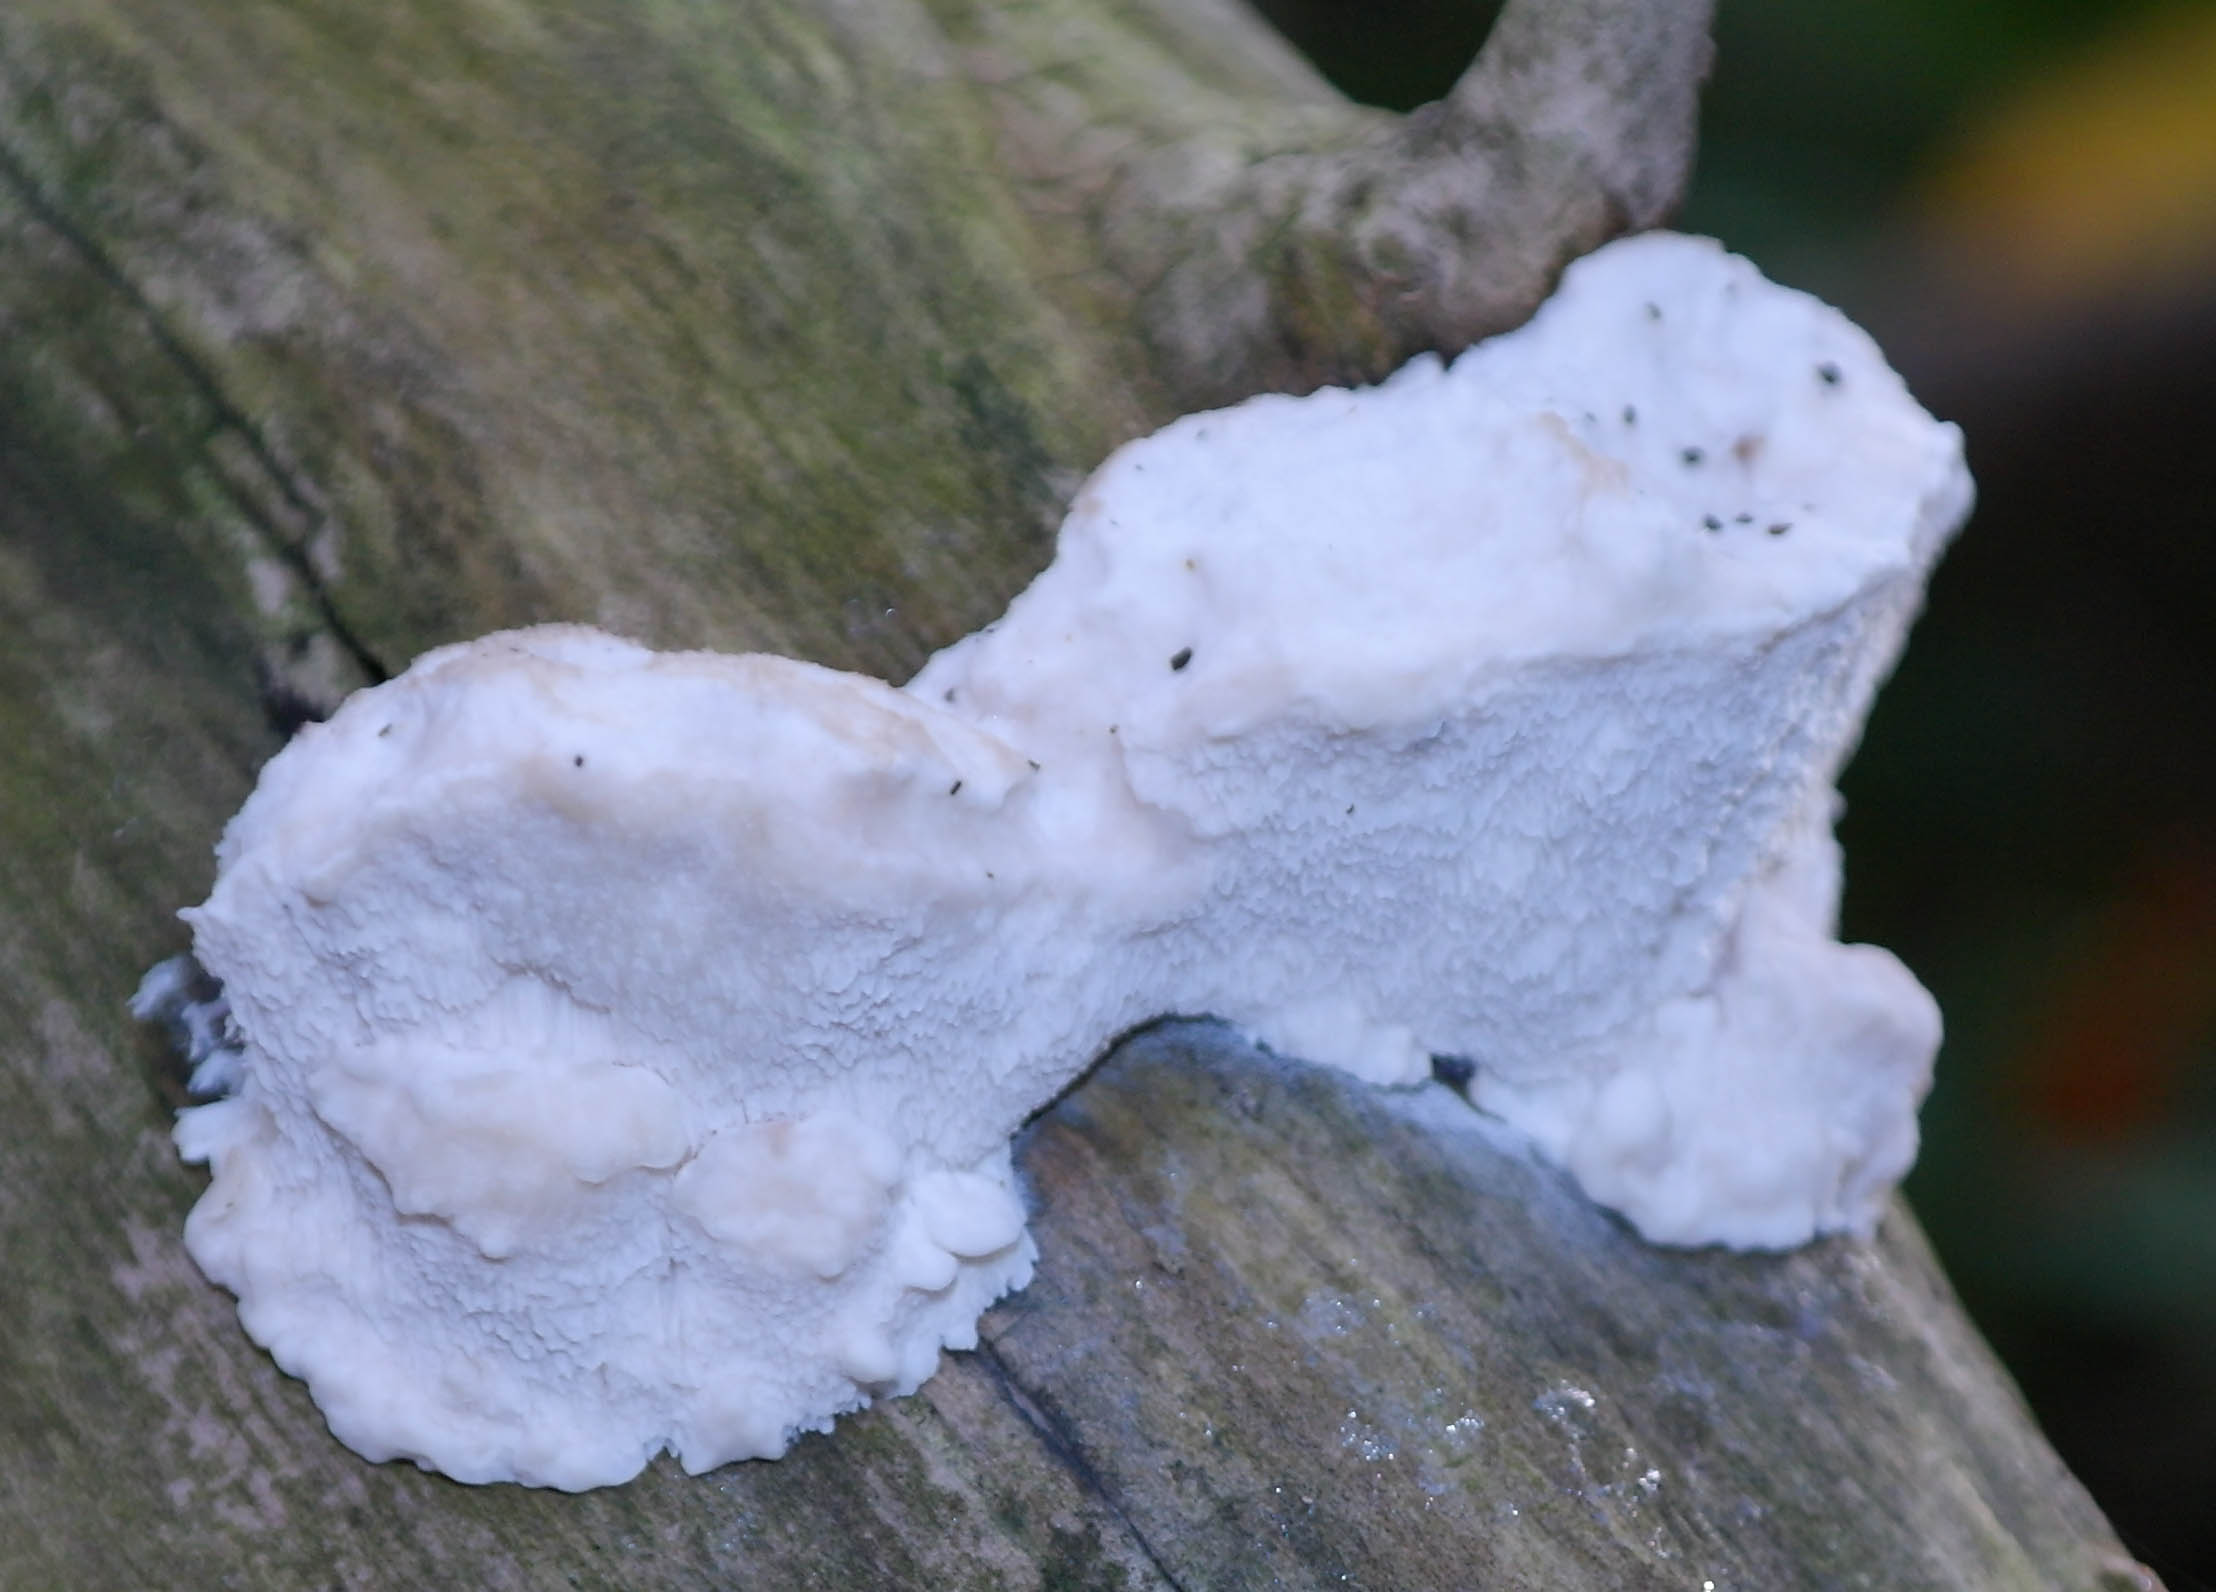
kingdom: Fungi
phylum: Basidiomycota
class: Agaricomycetes
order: Polyporales
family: Incrustoporiaceae
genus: Tyromyces
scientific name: Tyromyces lacteus
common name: mælkehvid kødporesvamp
